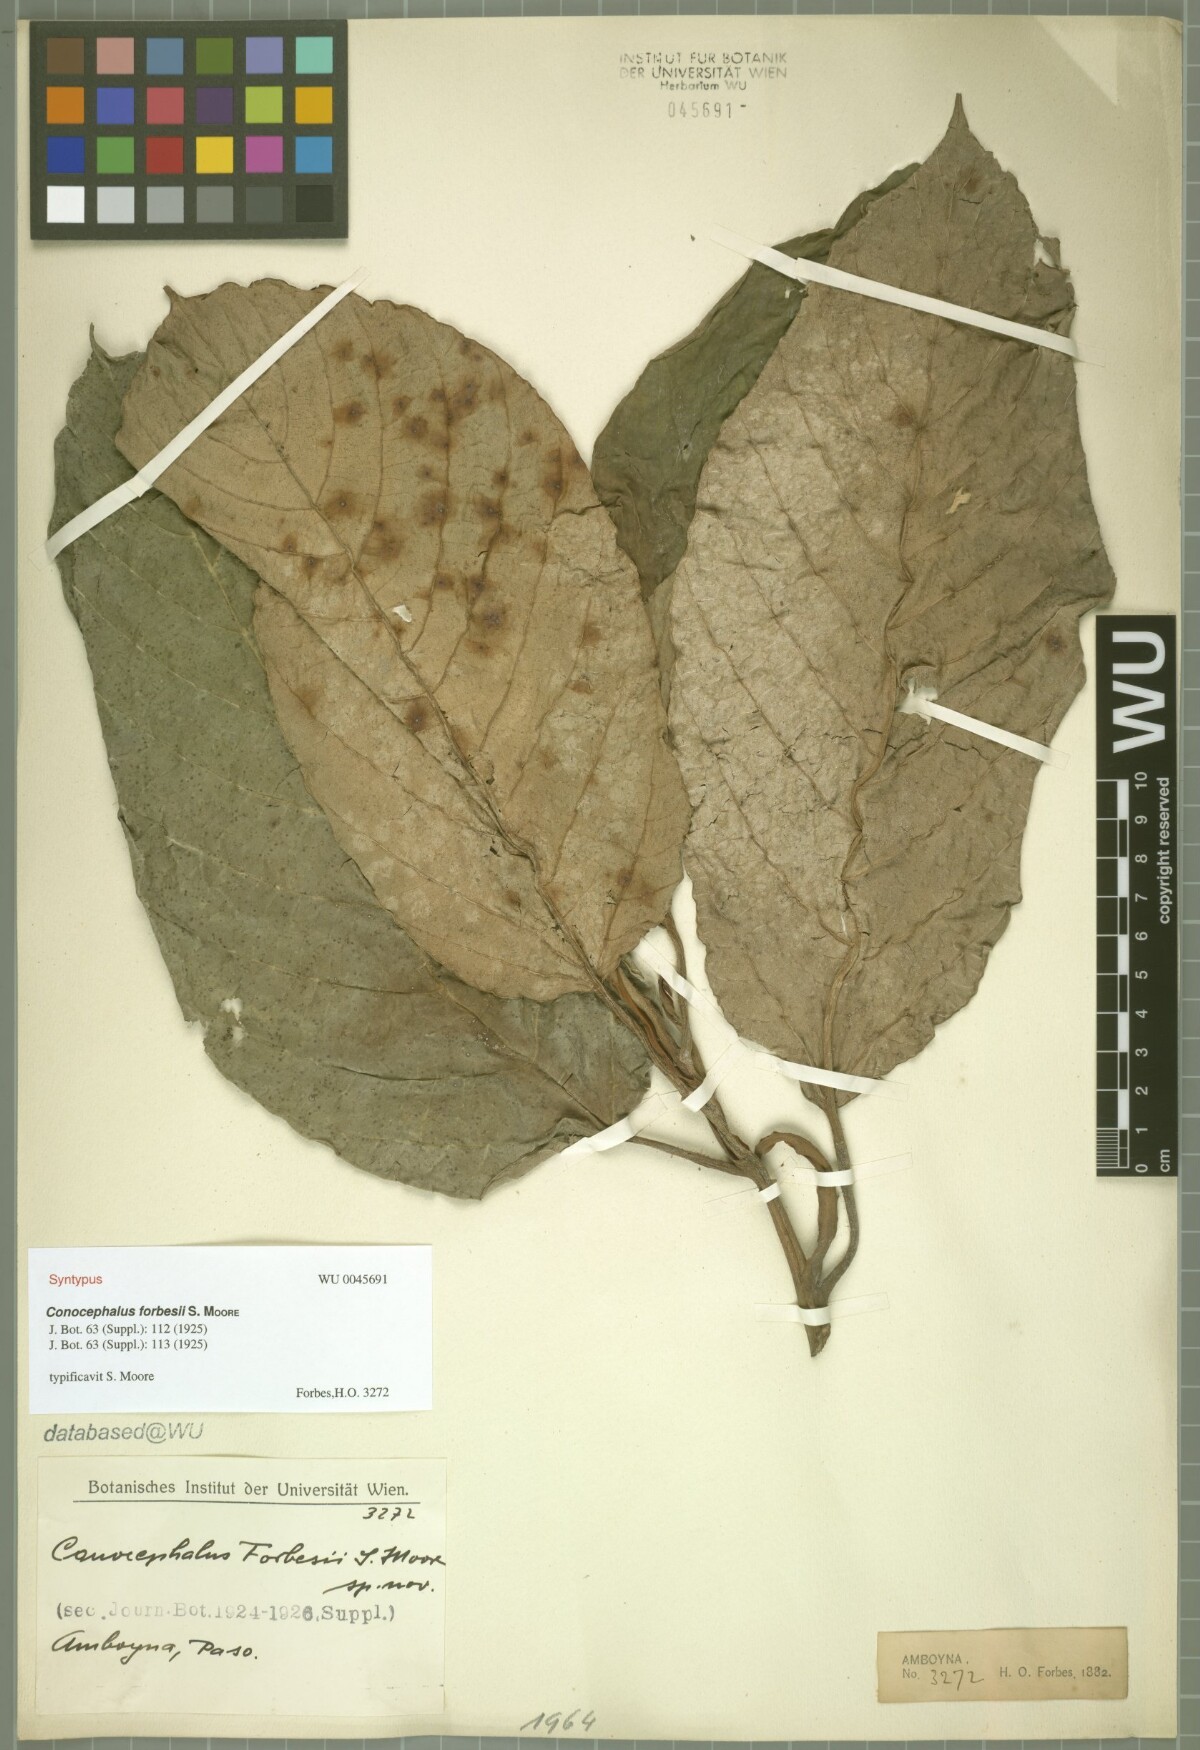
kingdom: Plantae
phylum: Tracheophyta
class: Magnoliopsida
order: Rosales
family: Urticaceae
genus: Poikilospermum
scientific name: Poikilospermum forbesii
